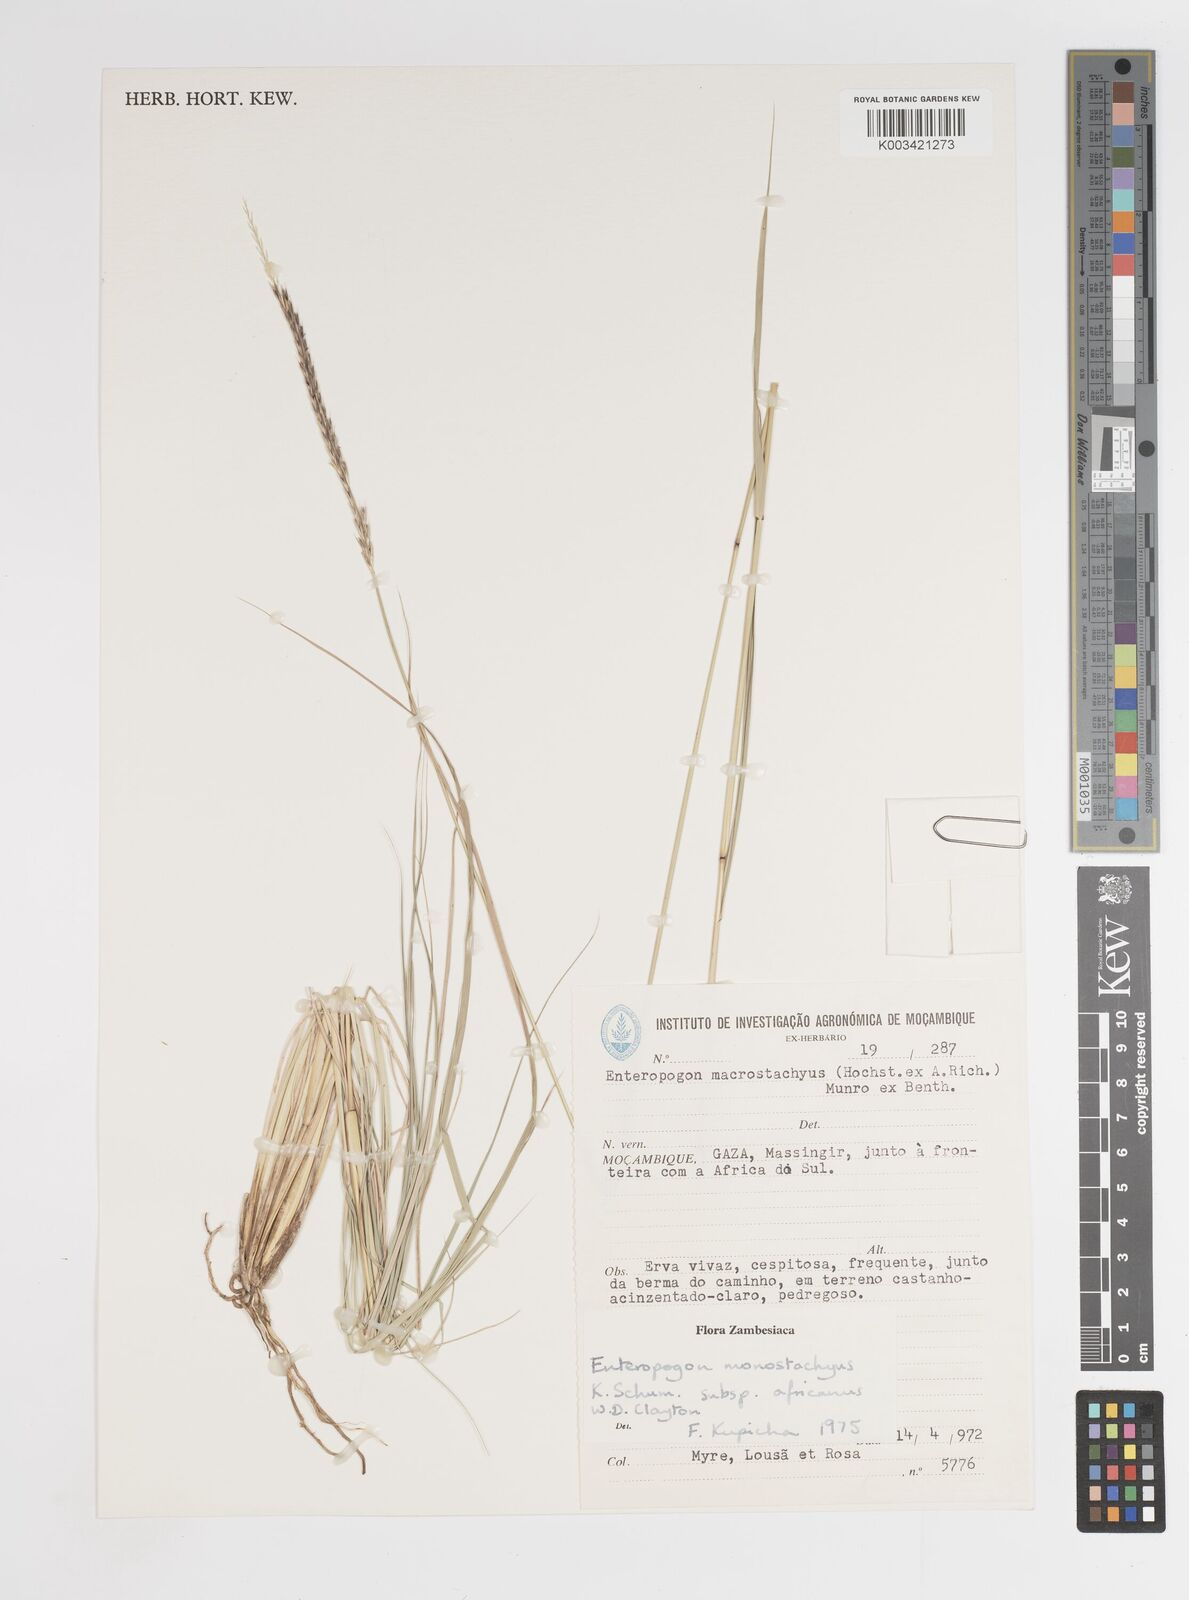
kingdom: Plantae
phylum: Tracheophyta
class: Liliopsida
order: Poales
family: Poaceae
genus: Enteropogon
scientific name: Enteropogon monostachyos
